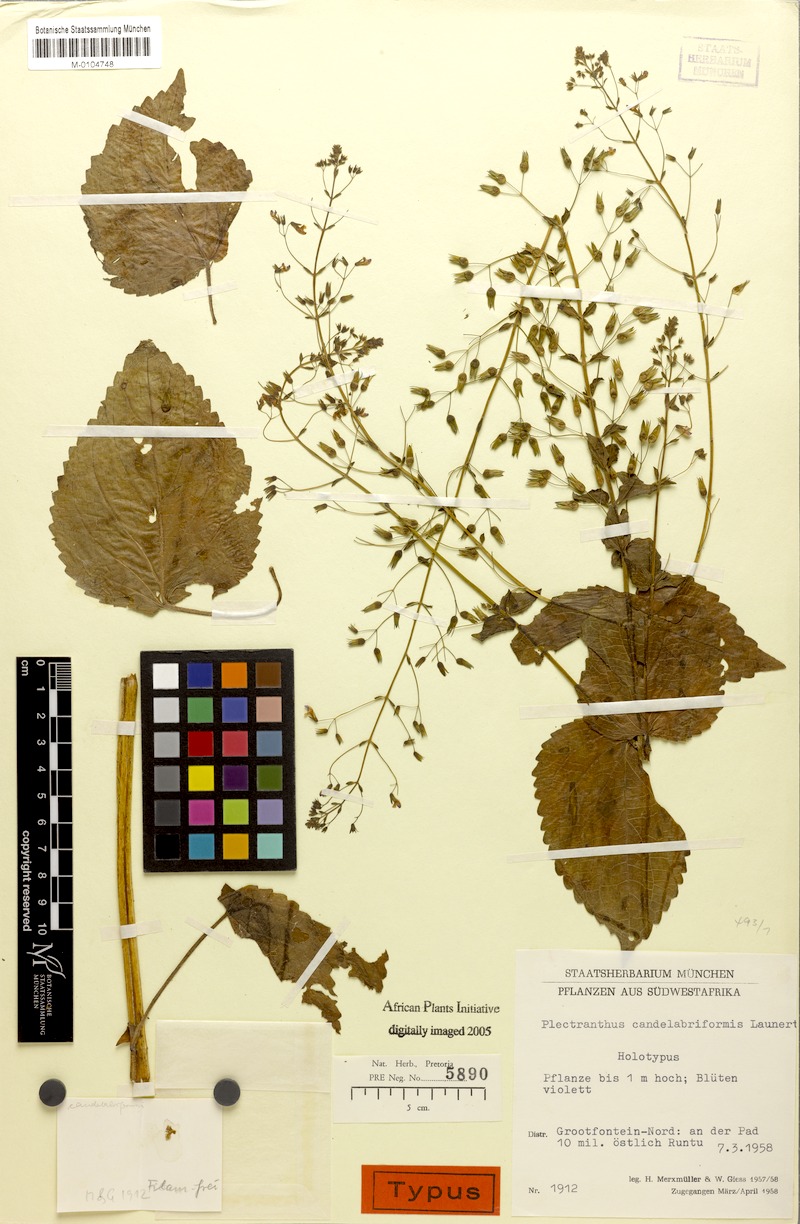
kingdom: Plantae
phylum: Tracheophyta
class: Magnoliopsida
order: Lamiales
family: Lamiaceae
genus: Equilabium
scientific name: Equilabium candelabriforme
